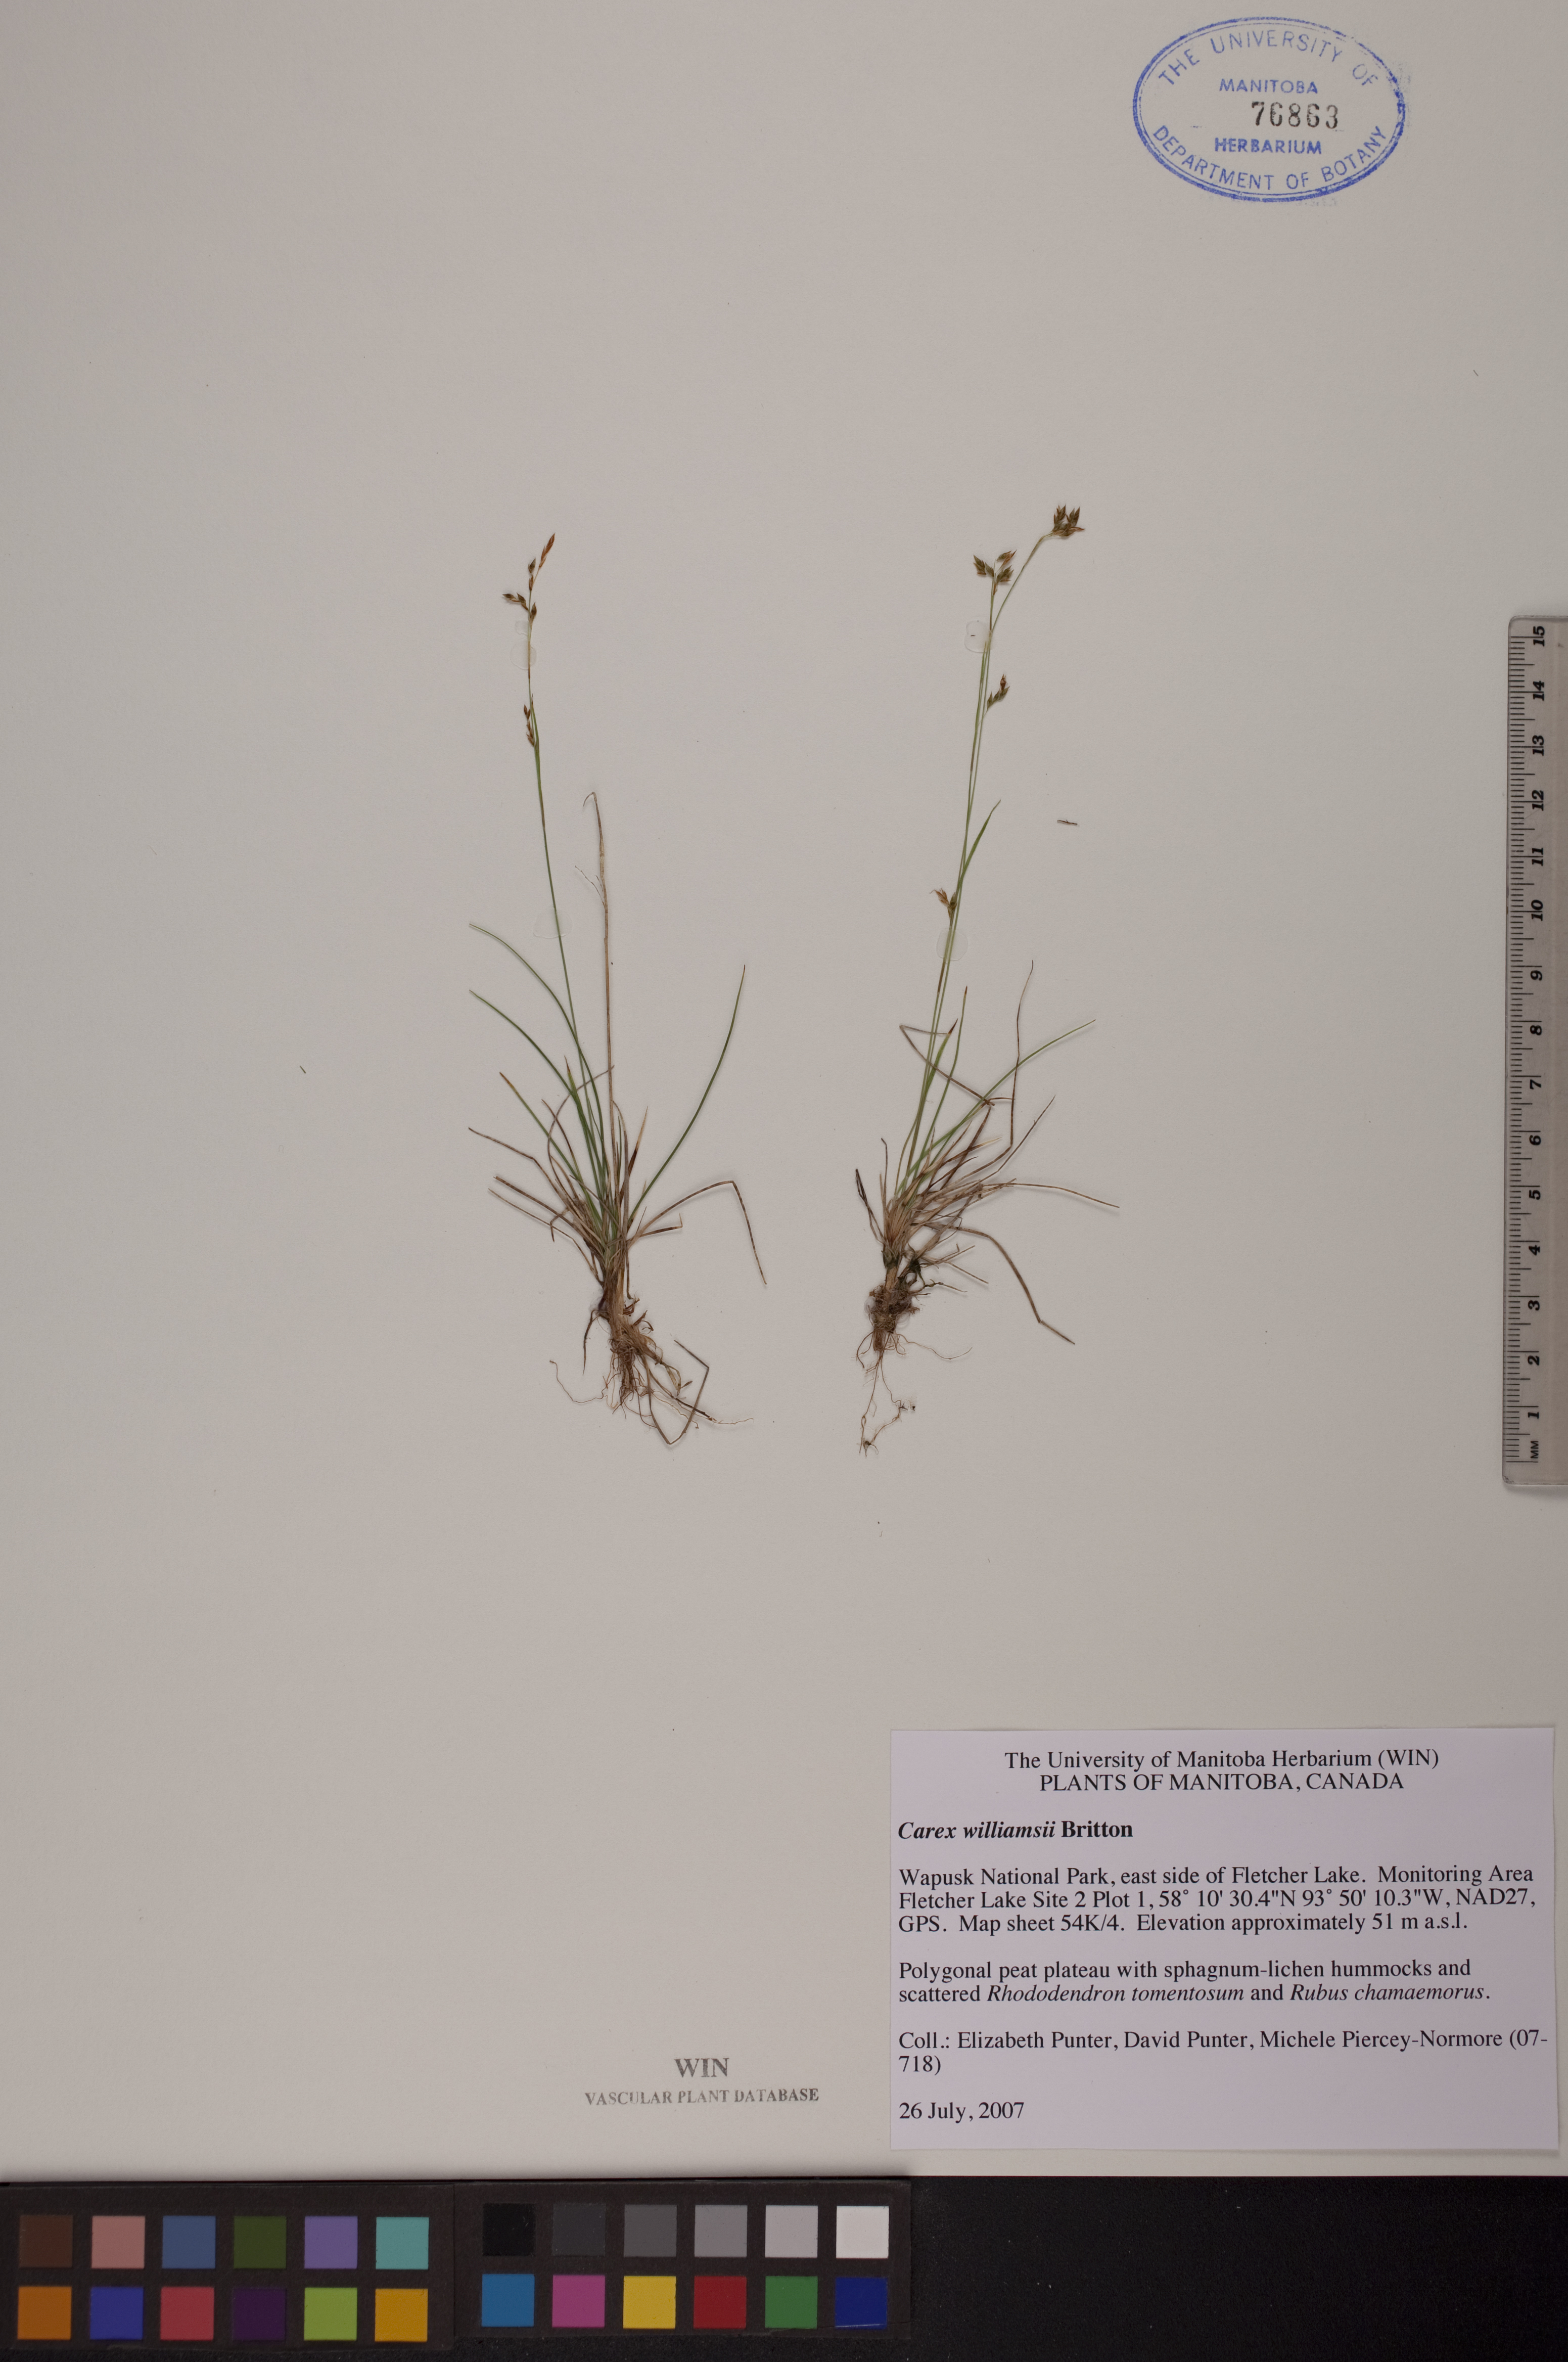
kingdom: Plantae
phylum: Tracheophyta
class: Liliopsida
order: Poales
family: Cyperaceae
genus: Carex
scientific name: Carex williamsii
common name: Williams' sedge
